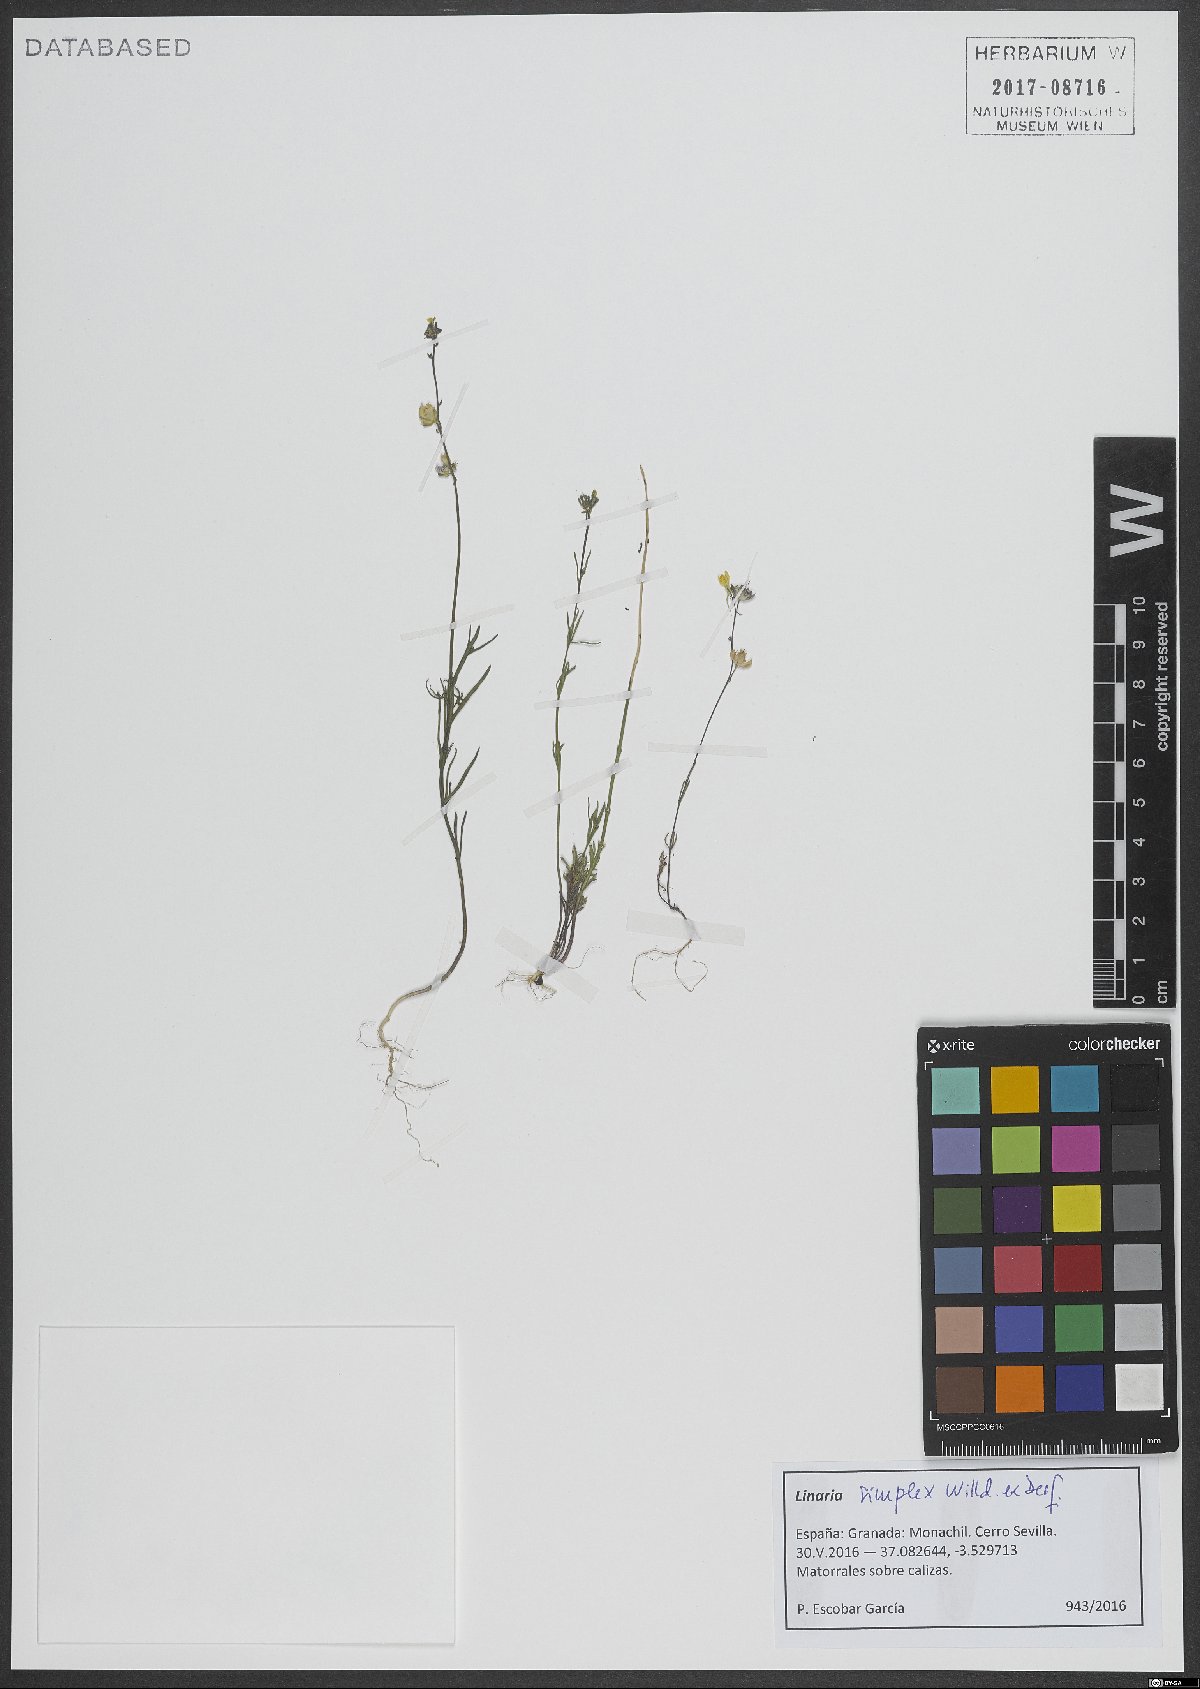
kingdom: Plantae
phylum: Tracheophyta
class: Magnoliopsida
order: Lamiales
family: Plantaginaceae
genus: Linaria
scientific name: Linaria simplex
